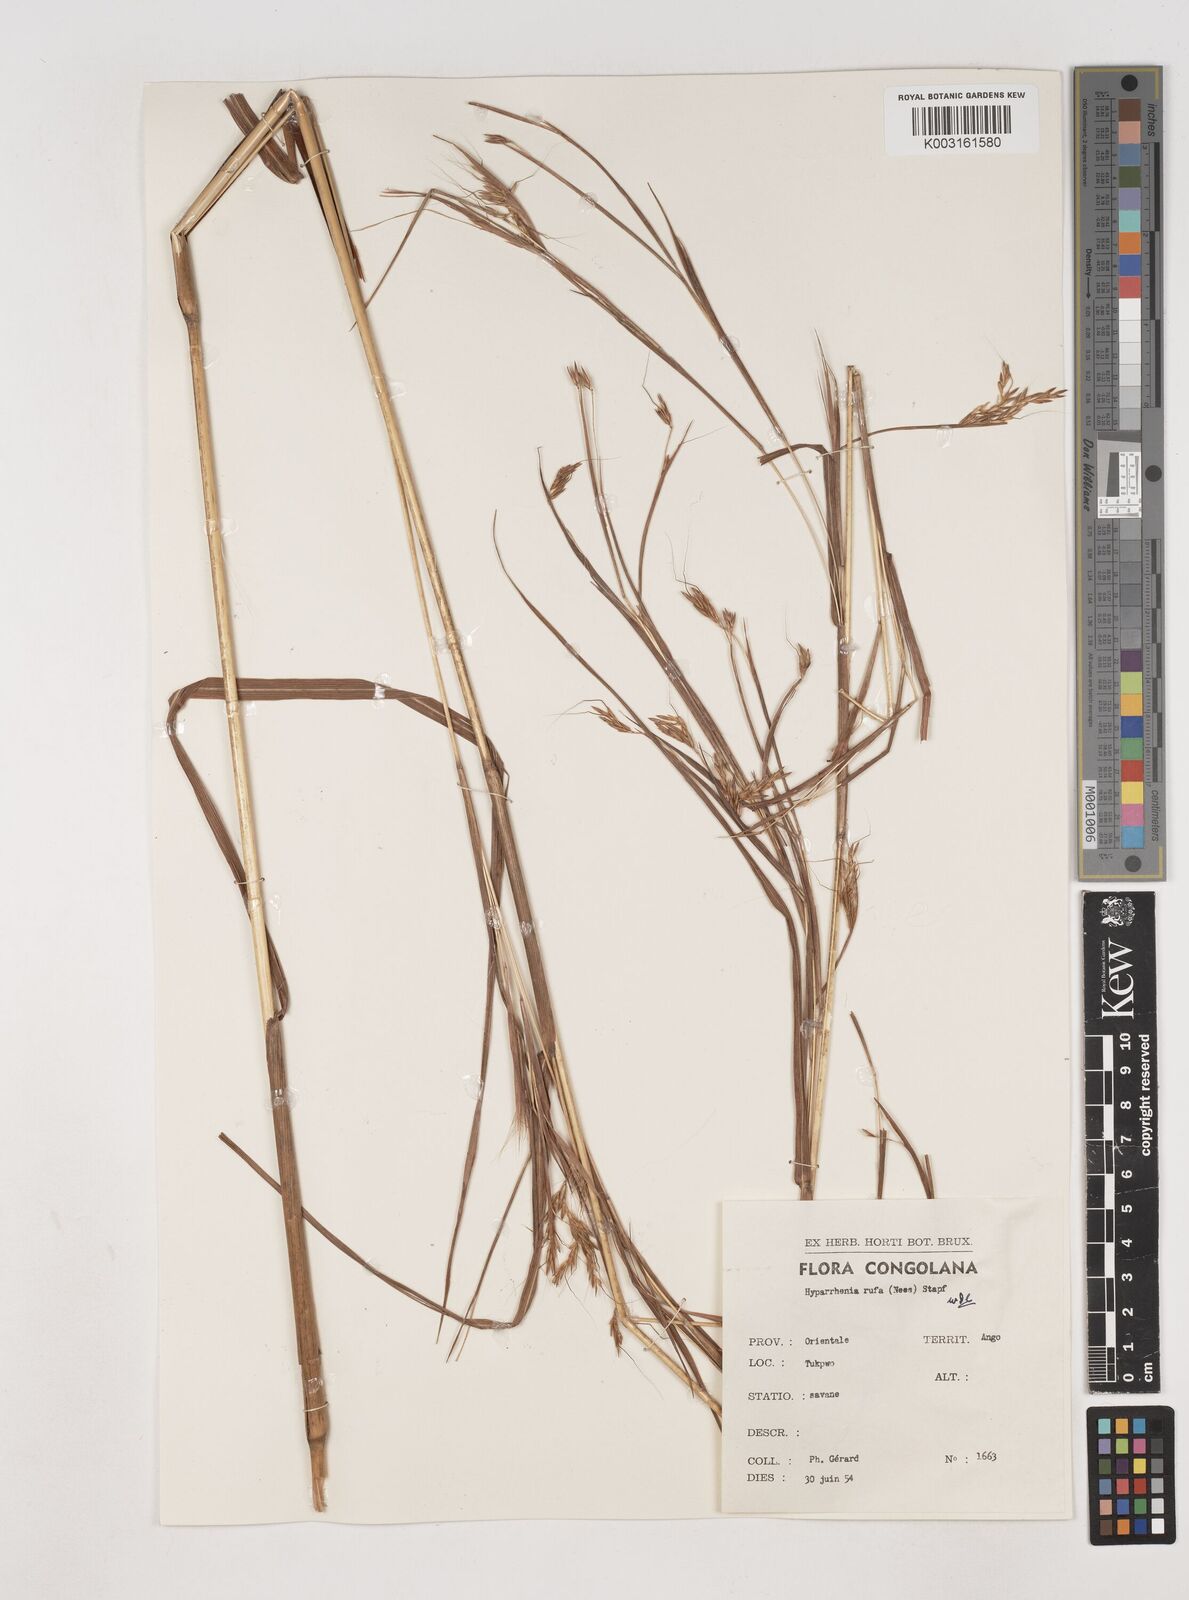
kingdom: Plantae
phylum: Tracheophyta
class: Liliopsida
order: Poales
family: Poaceae
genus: Hyparrhenia
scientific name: Hyparrhenia rufa
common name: Jaraguagrass
